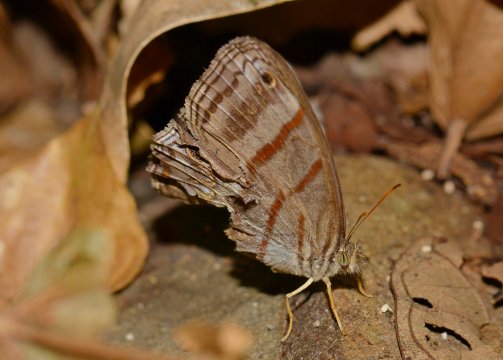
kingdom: Animalia
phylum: Arthropoda
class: Insecta
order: Lepidoptera
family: Nymphalidae
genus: Magneuptychia
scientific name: Magneuptychia libye
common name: Blue-gray Satyr
